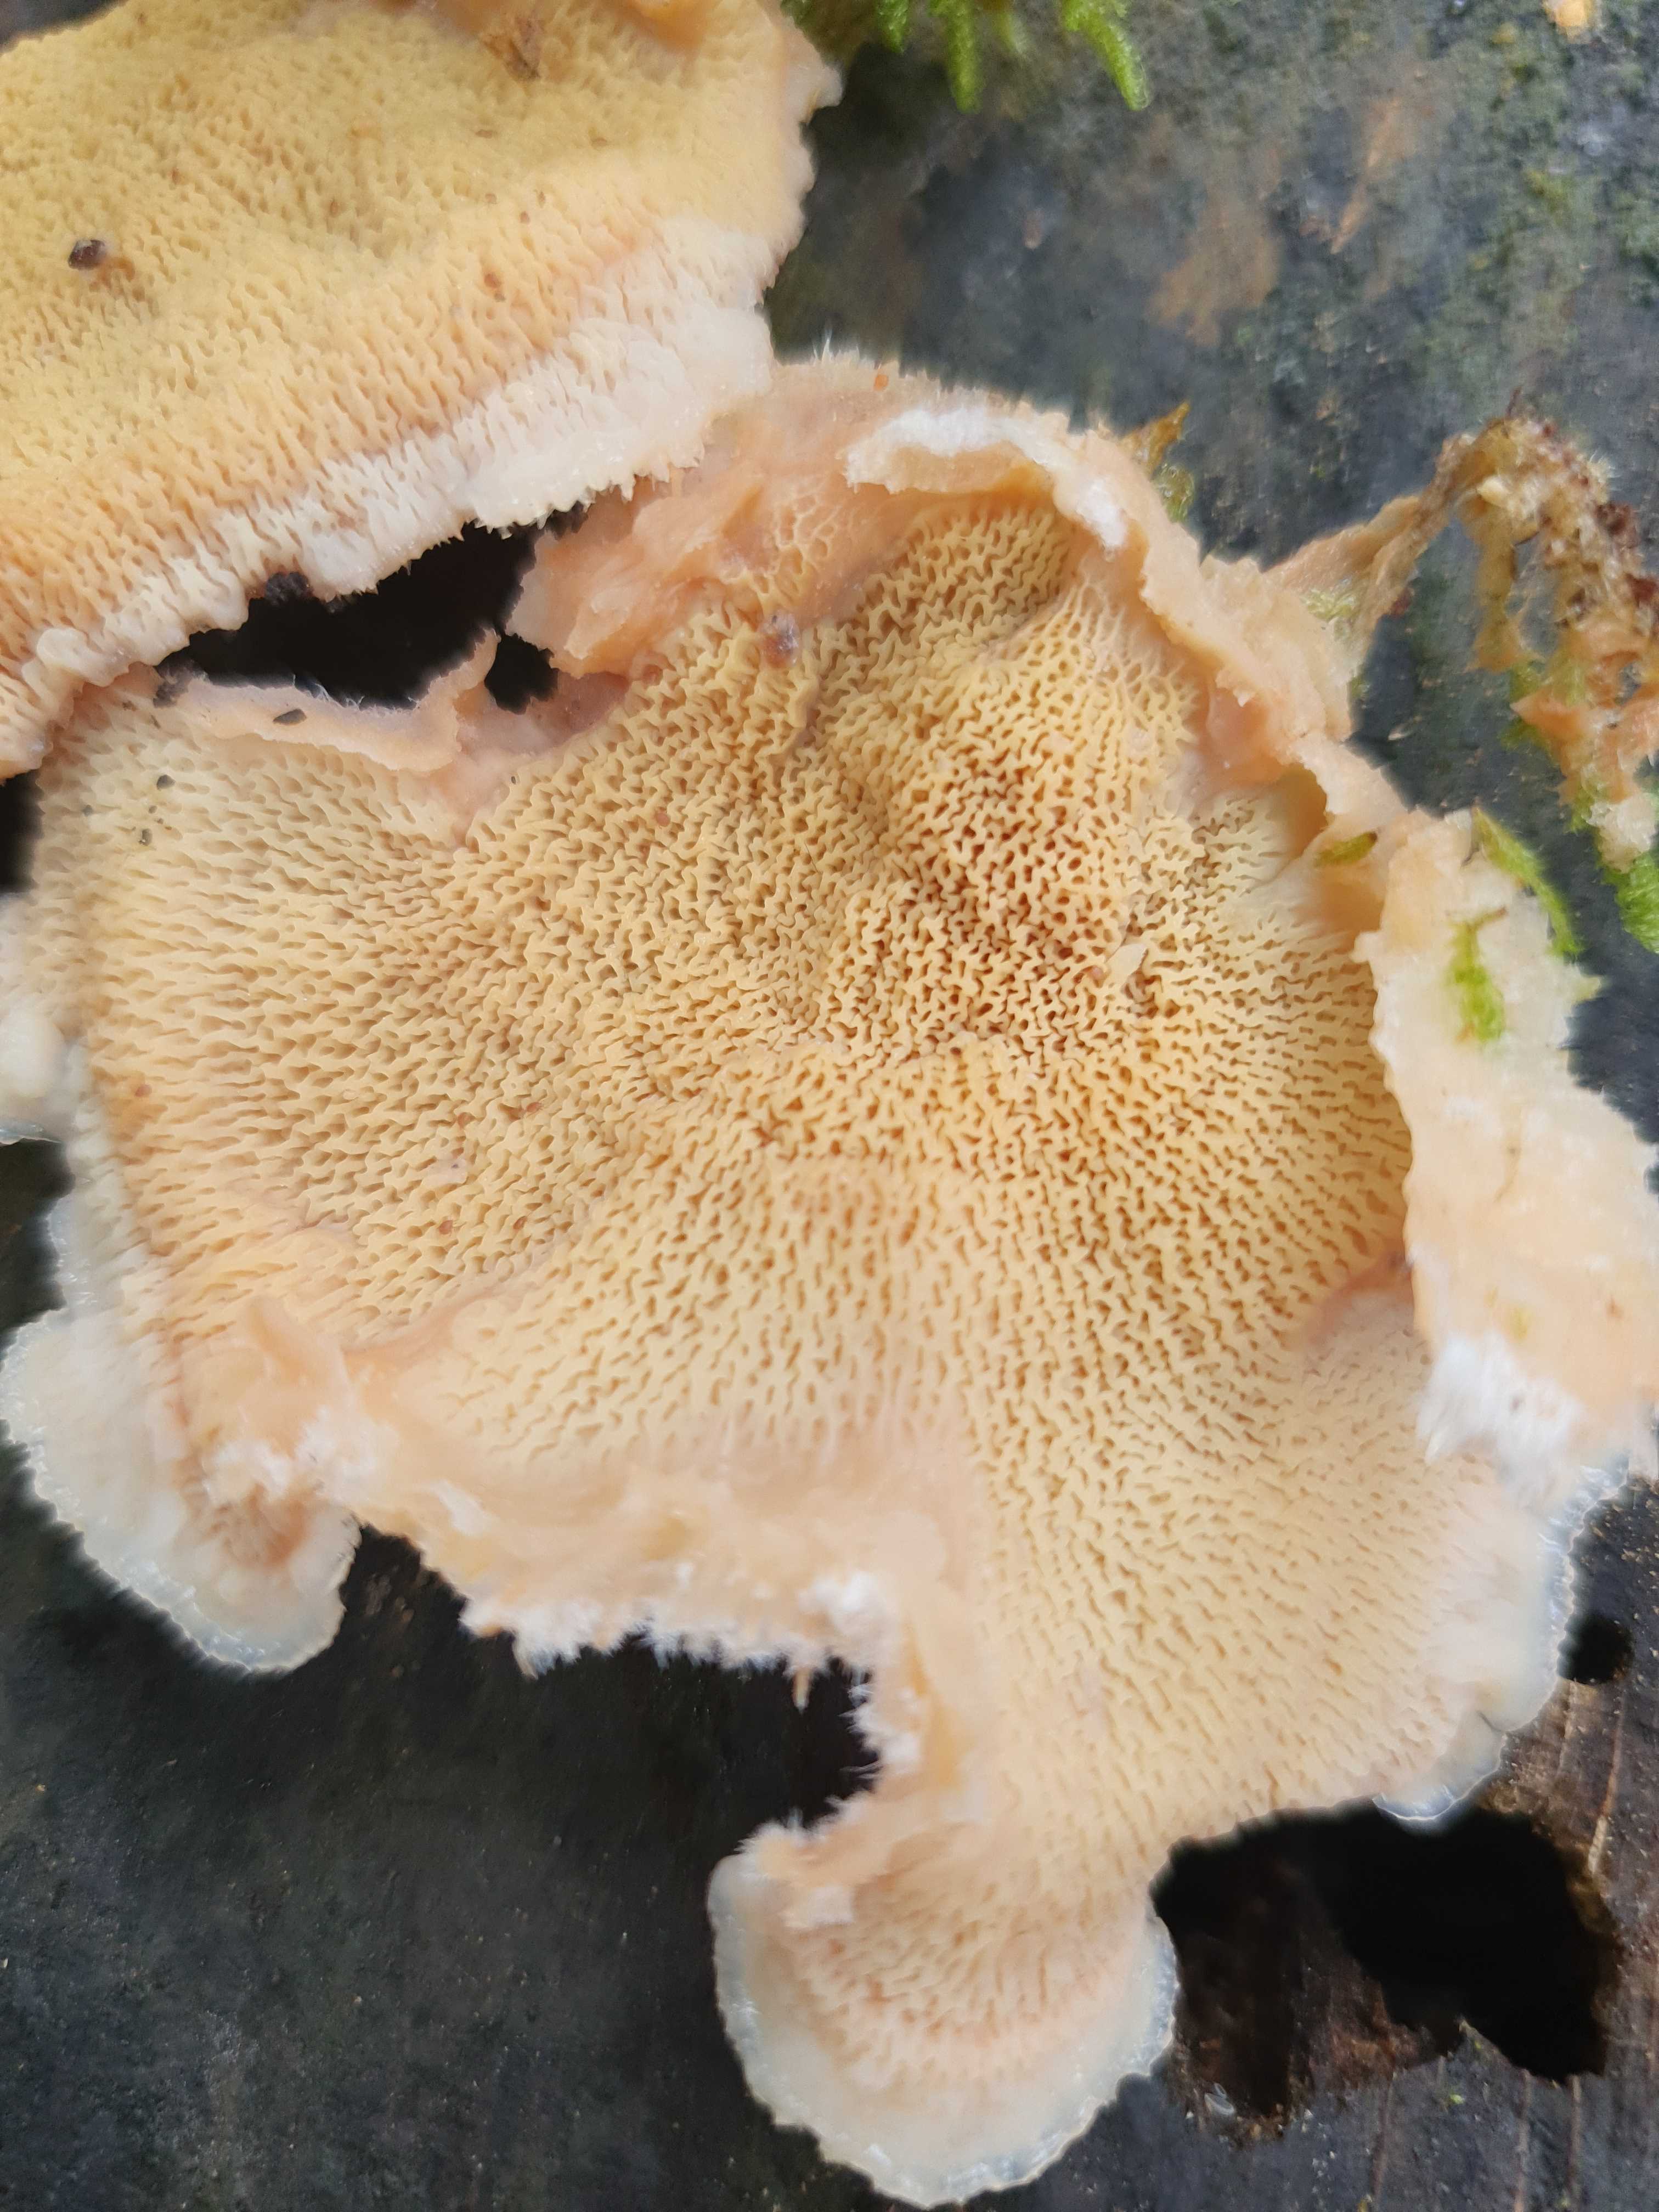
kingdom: Fungi
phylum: Basidiomycota
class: Agaricomycetes
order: Polyporales
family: Meruliaceae
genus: Phlebia
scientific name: Phlebia tremellosa
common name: bævrende åresvamp
